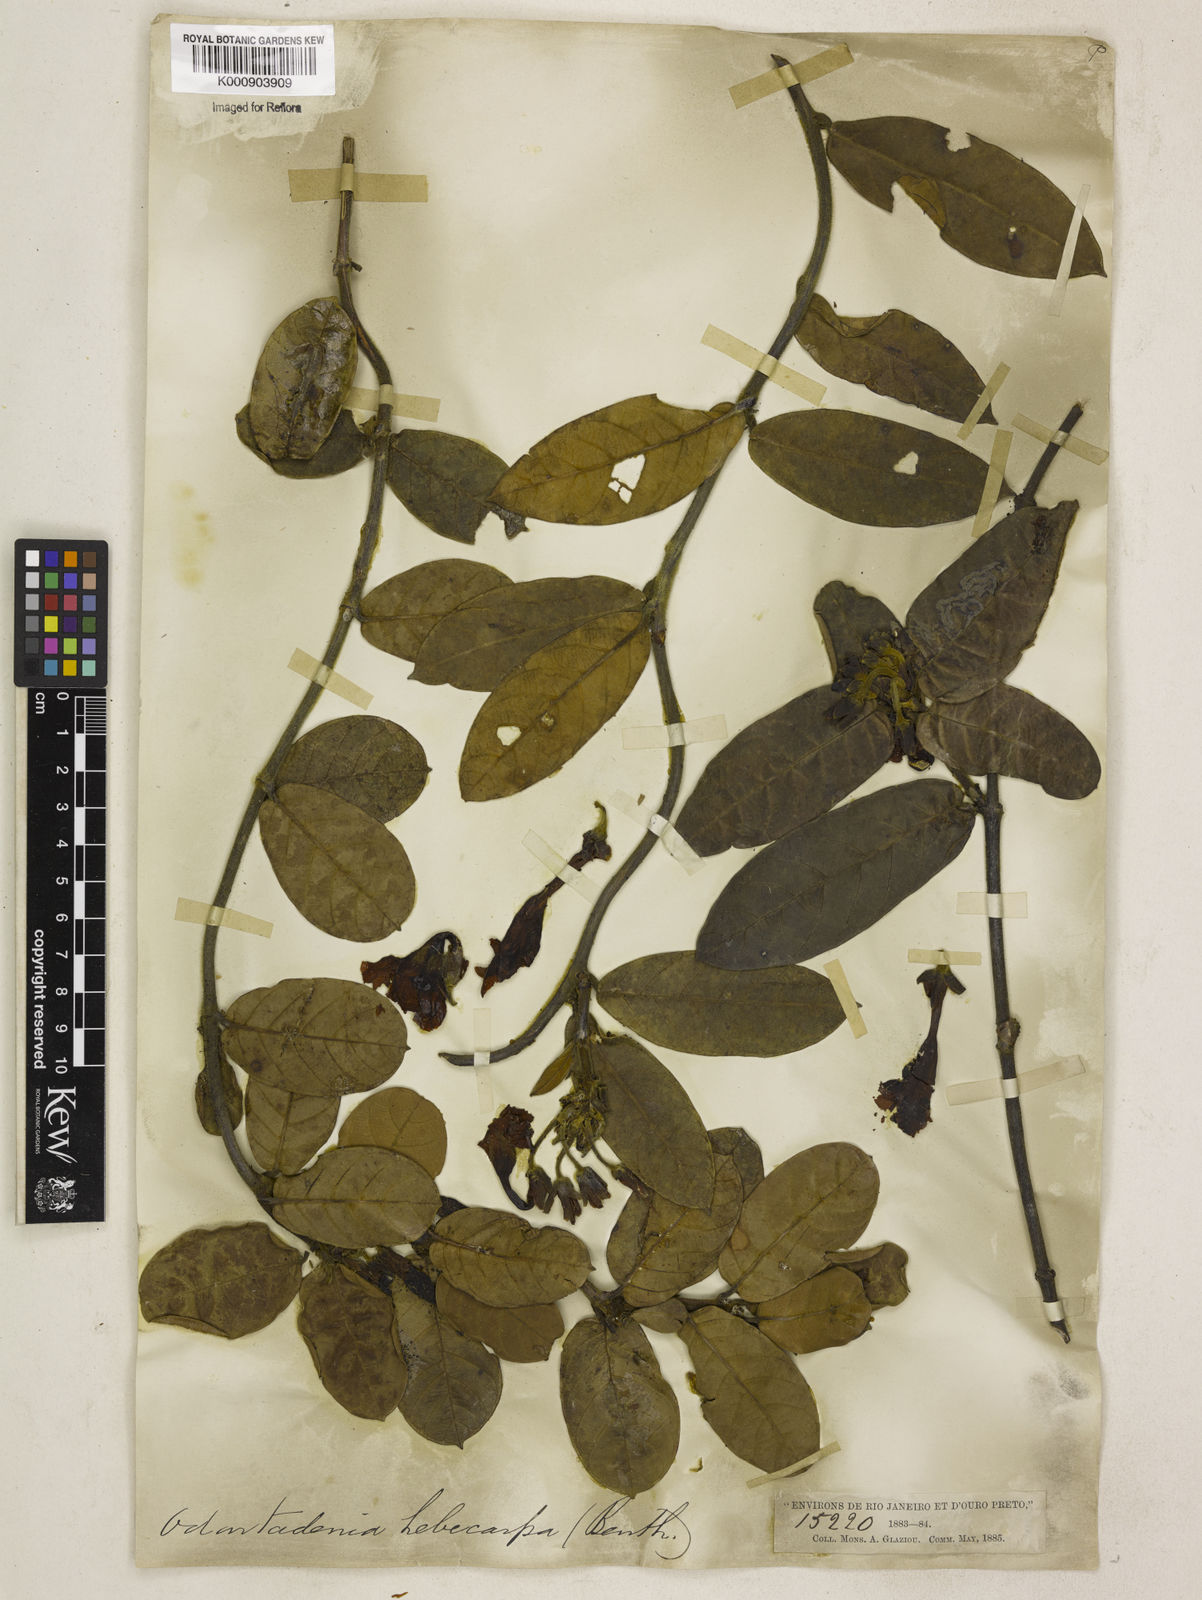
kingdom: Plantae
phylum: Tracheophyta
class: Magnoliopsida
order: Gentianales
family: Apocynaceae
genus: Odontadenia
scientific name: Odontadenia lutea
